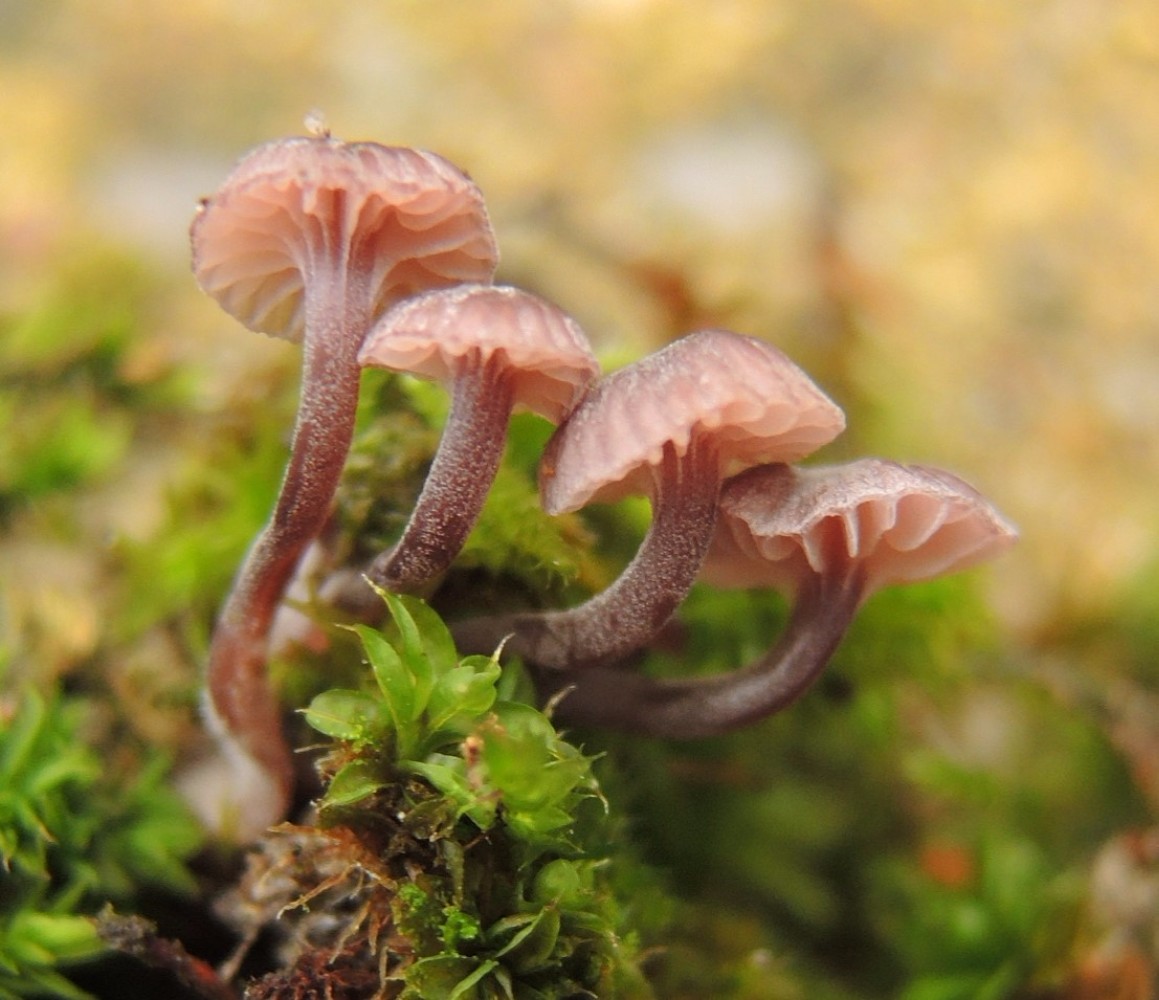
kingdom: Fungi
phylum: Basidiomycota
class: Agaricomycetes
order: Agaricales
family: Mycenaceae
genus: Mycena
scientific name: Mycena meliigena
